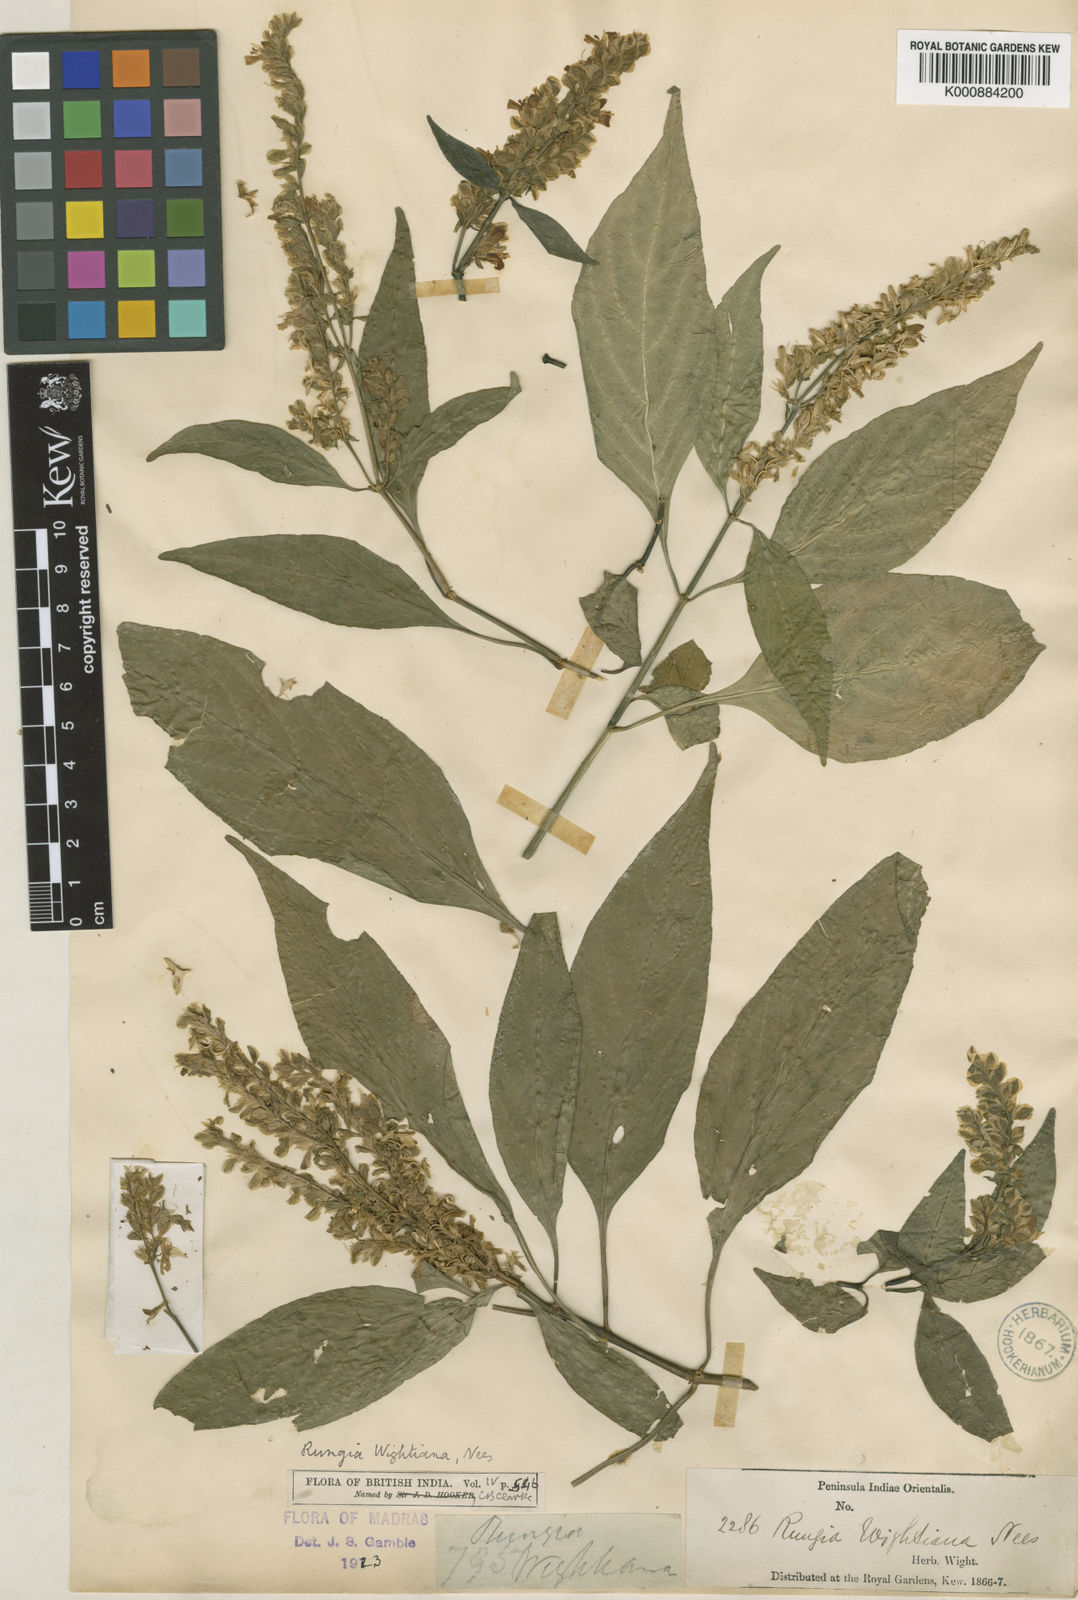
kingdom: Plantae
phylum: Tracheophyta
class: Magnoliopsida
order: Lamiales
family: Acanthaceae
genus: Rungia
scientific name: Rungia wightiana
